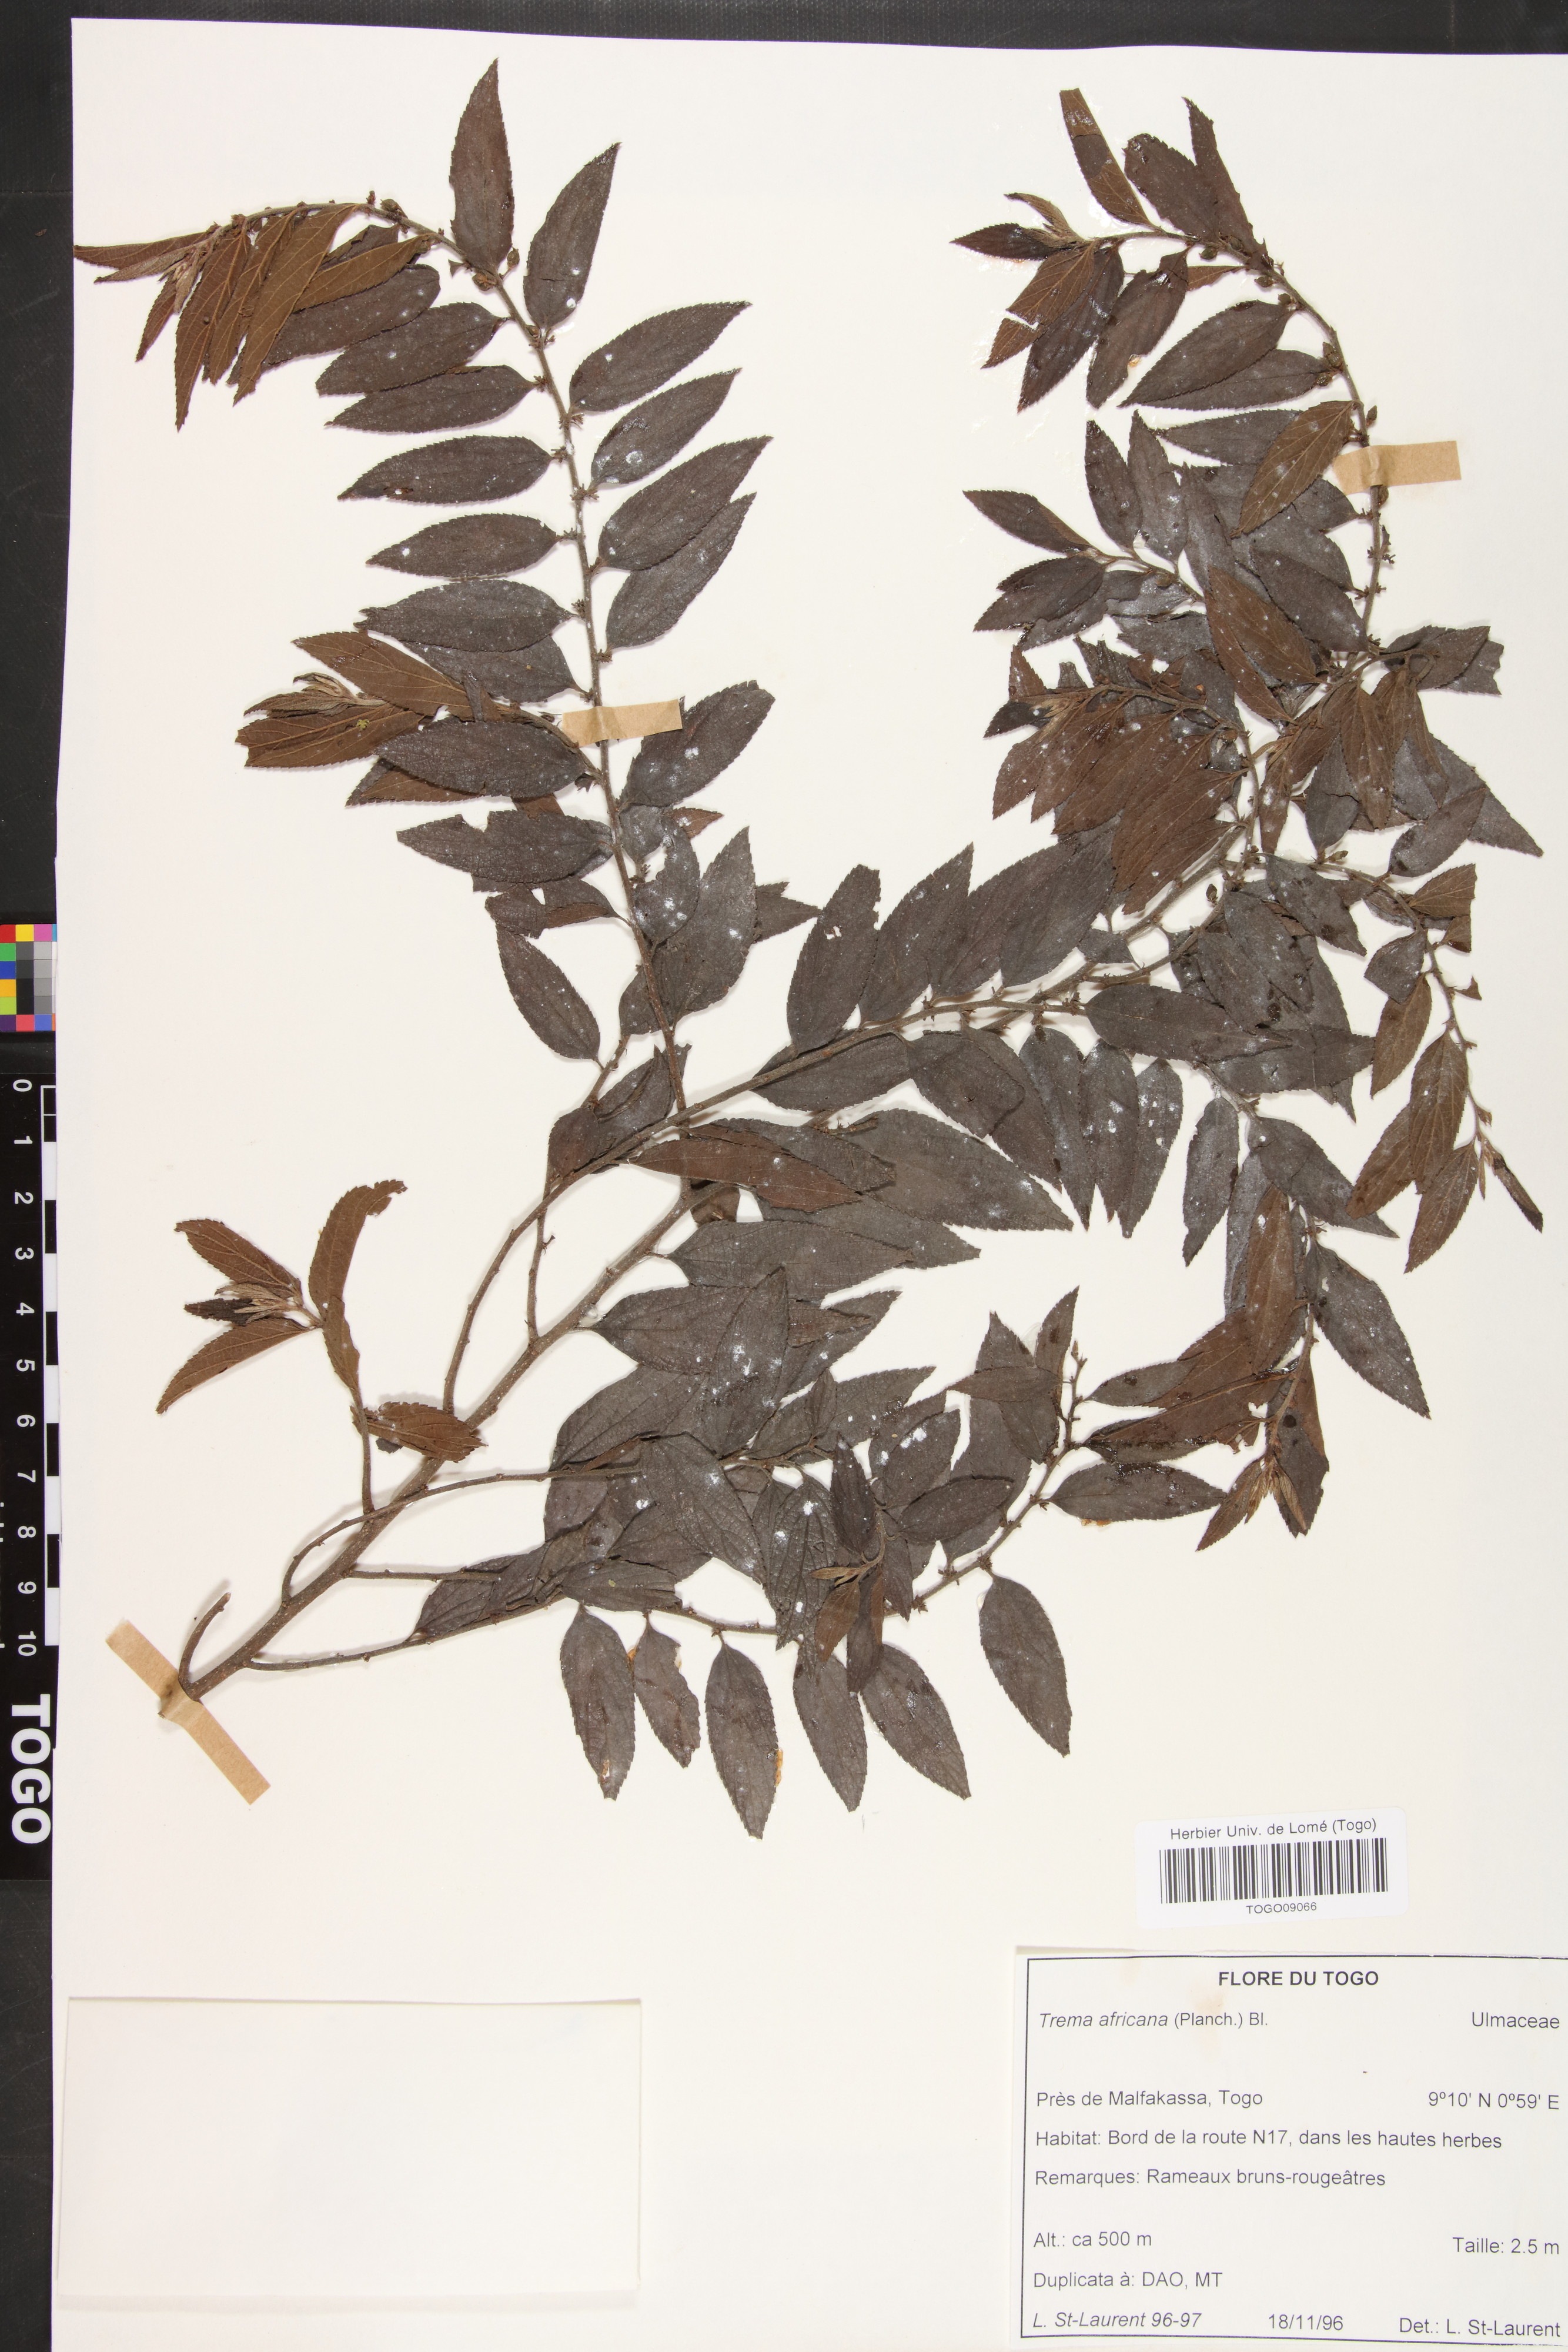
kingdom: Plantae
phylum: Tracheophyta
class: Magnoliopsida
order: Rosales
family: Cannabaceae
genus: Trema
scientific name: Trema orientale
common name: Indian charcoal tree
